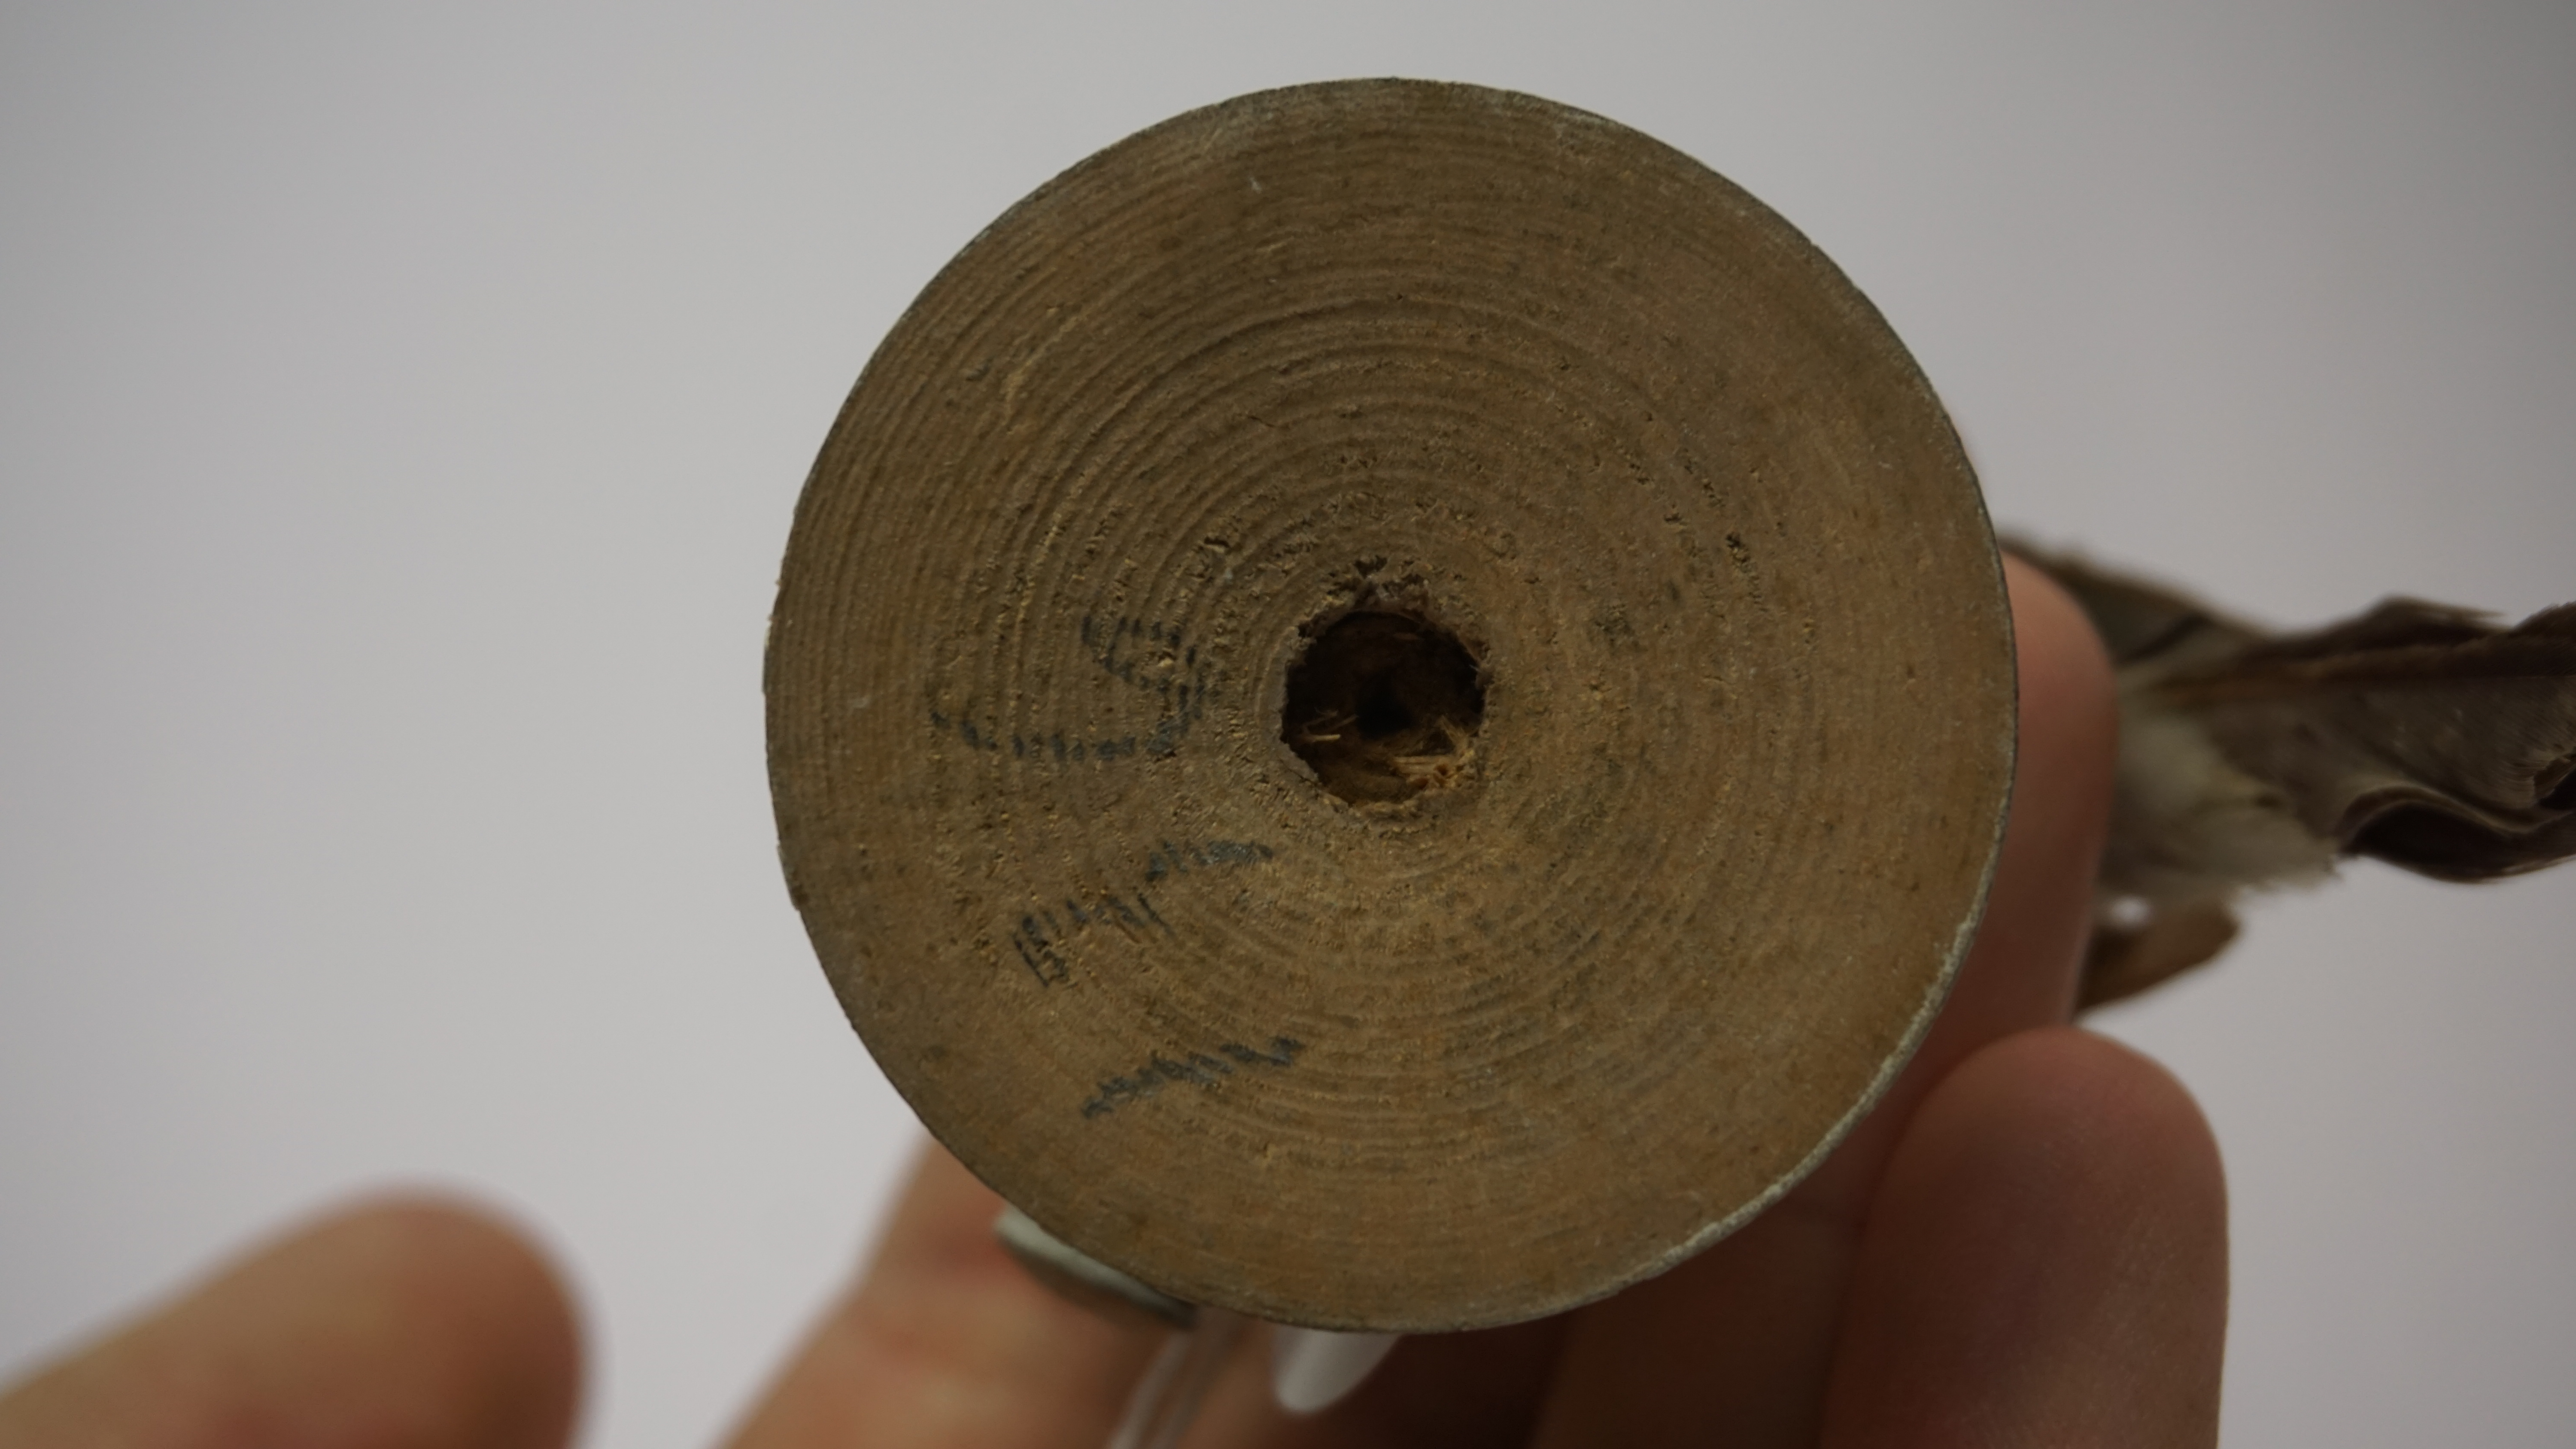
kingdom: Animalia
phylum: Chordata
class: Aves
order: Passeriformes
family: Viduidae
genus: Vidua
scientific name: Vidua paradisaea
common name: Long-tailed paradise whydah
